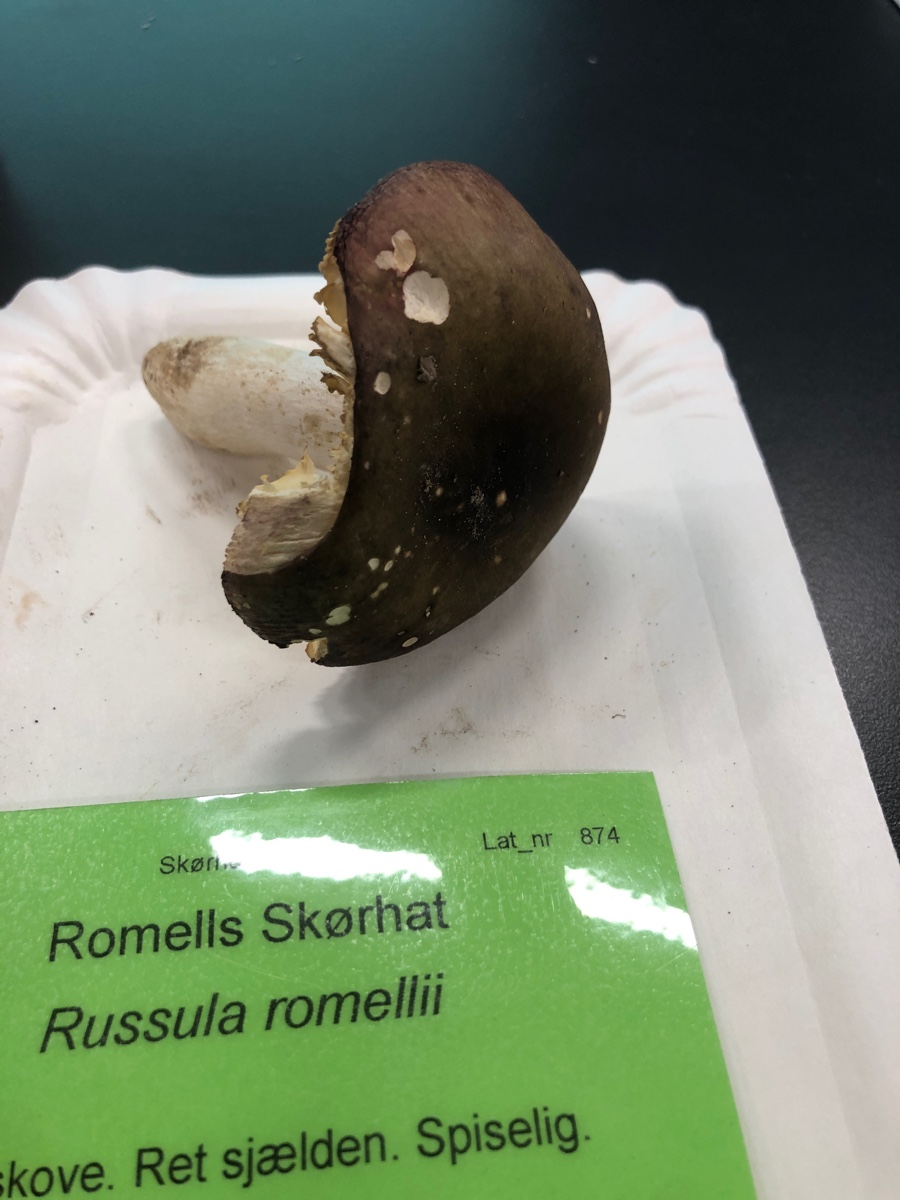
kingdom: Fungi
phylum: Basidiomycota
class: Agaricomycetes
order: Russulales
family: Russulaceae
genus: Russula
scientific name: Russula romellii
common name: romells skørhat
